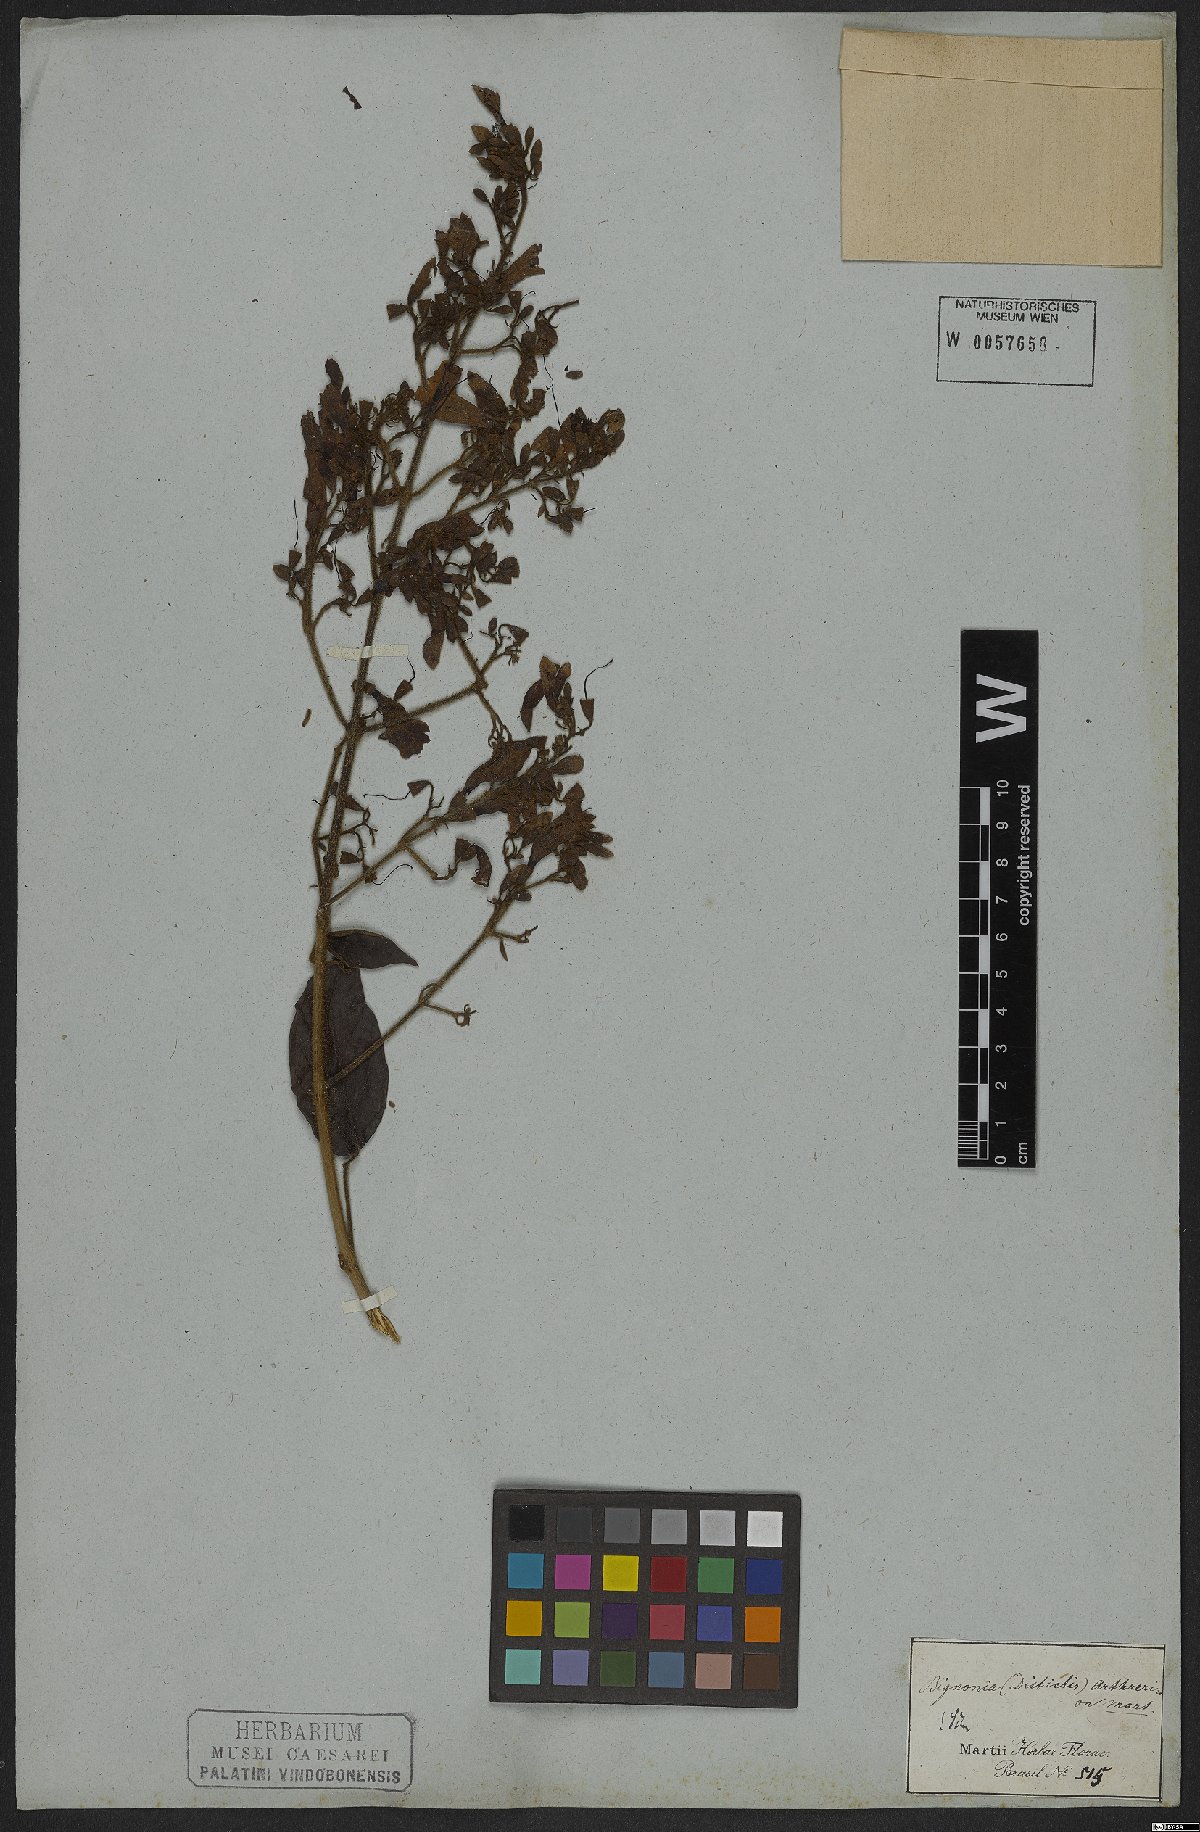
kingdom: Plantae
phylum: Tracheophyta
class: Magnoliopsida
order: Lamiales
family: Bignoniaceae
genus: Fridericia
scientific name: Fridericia arthrerion
